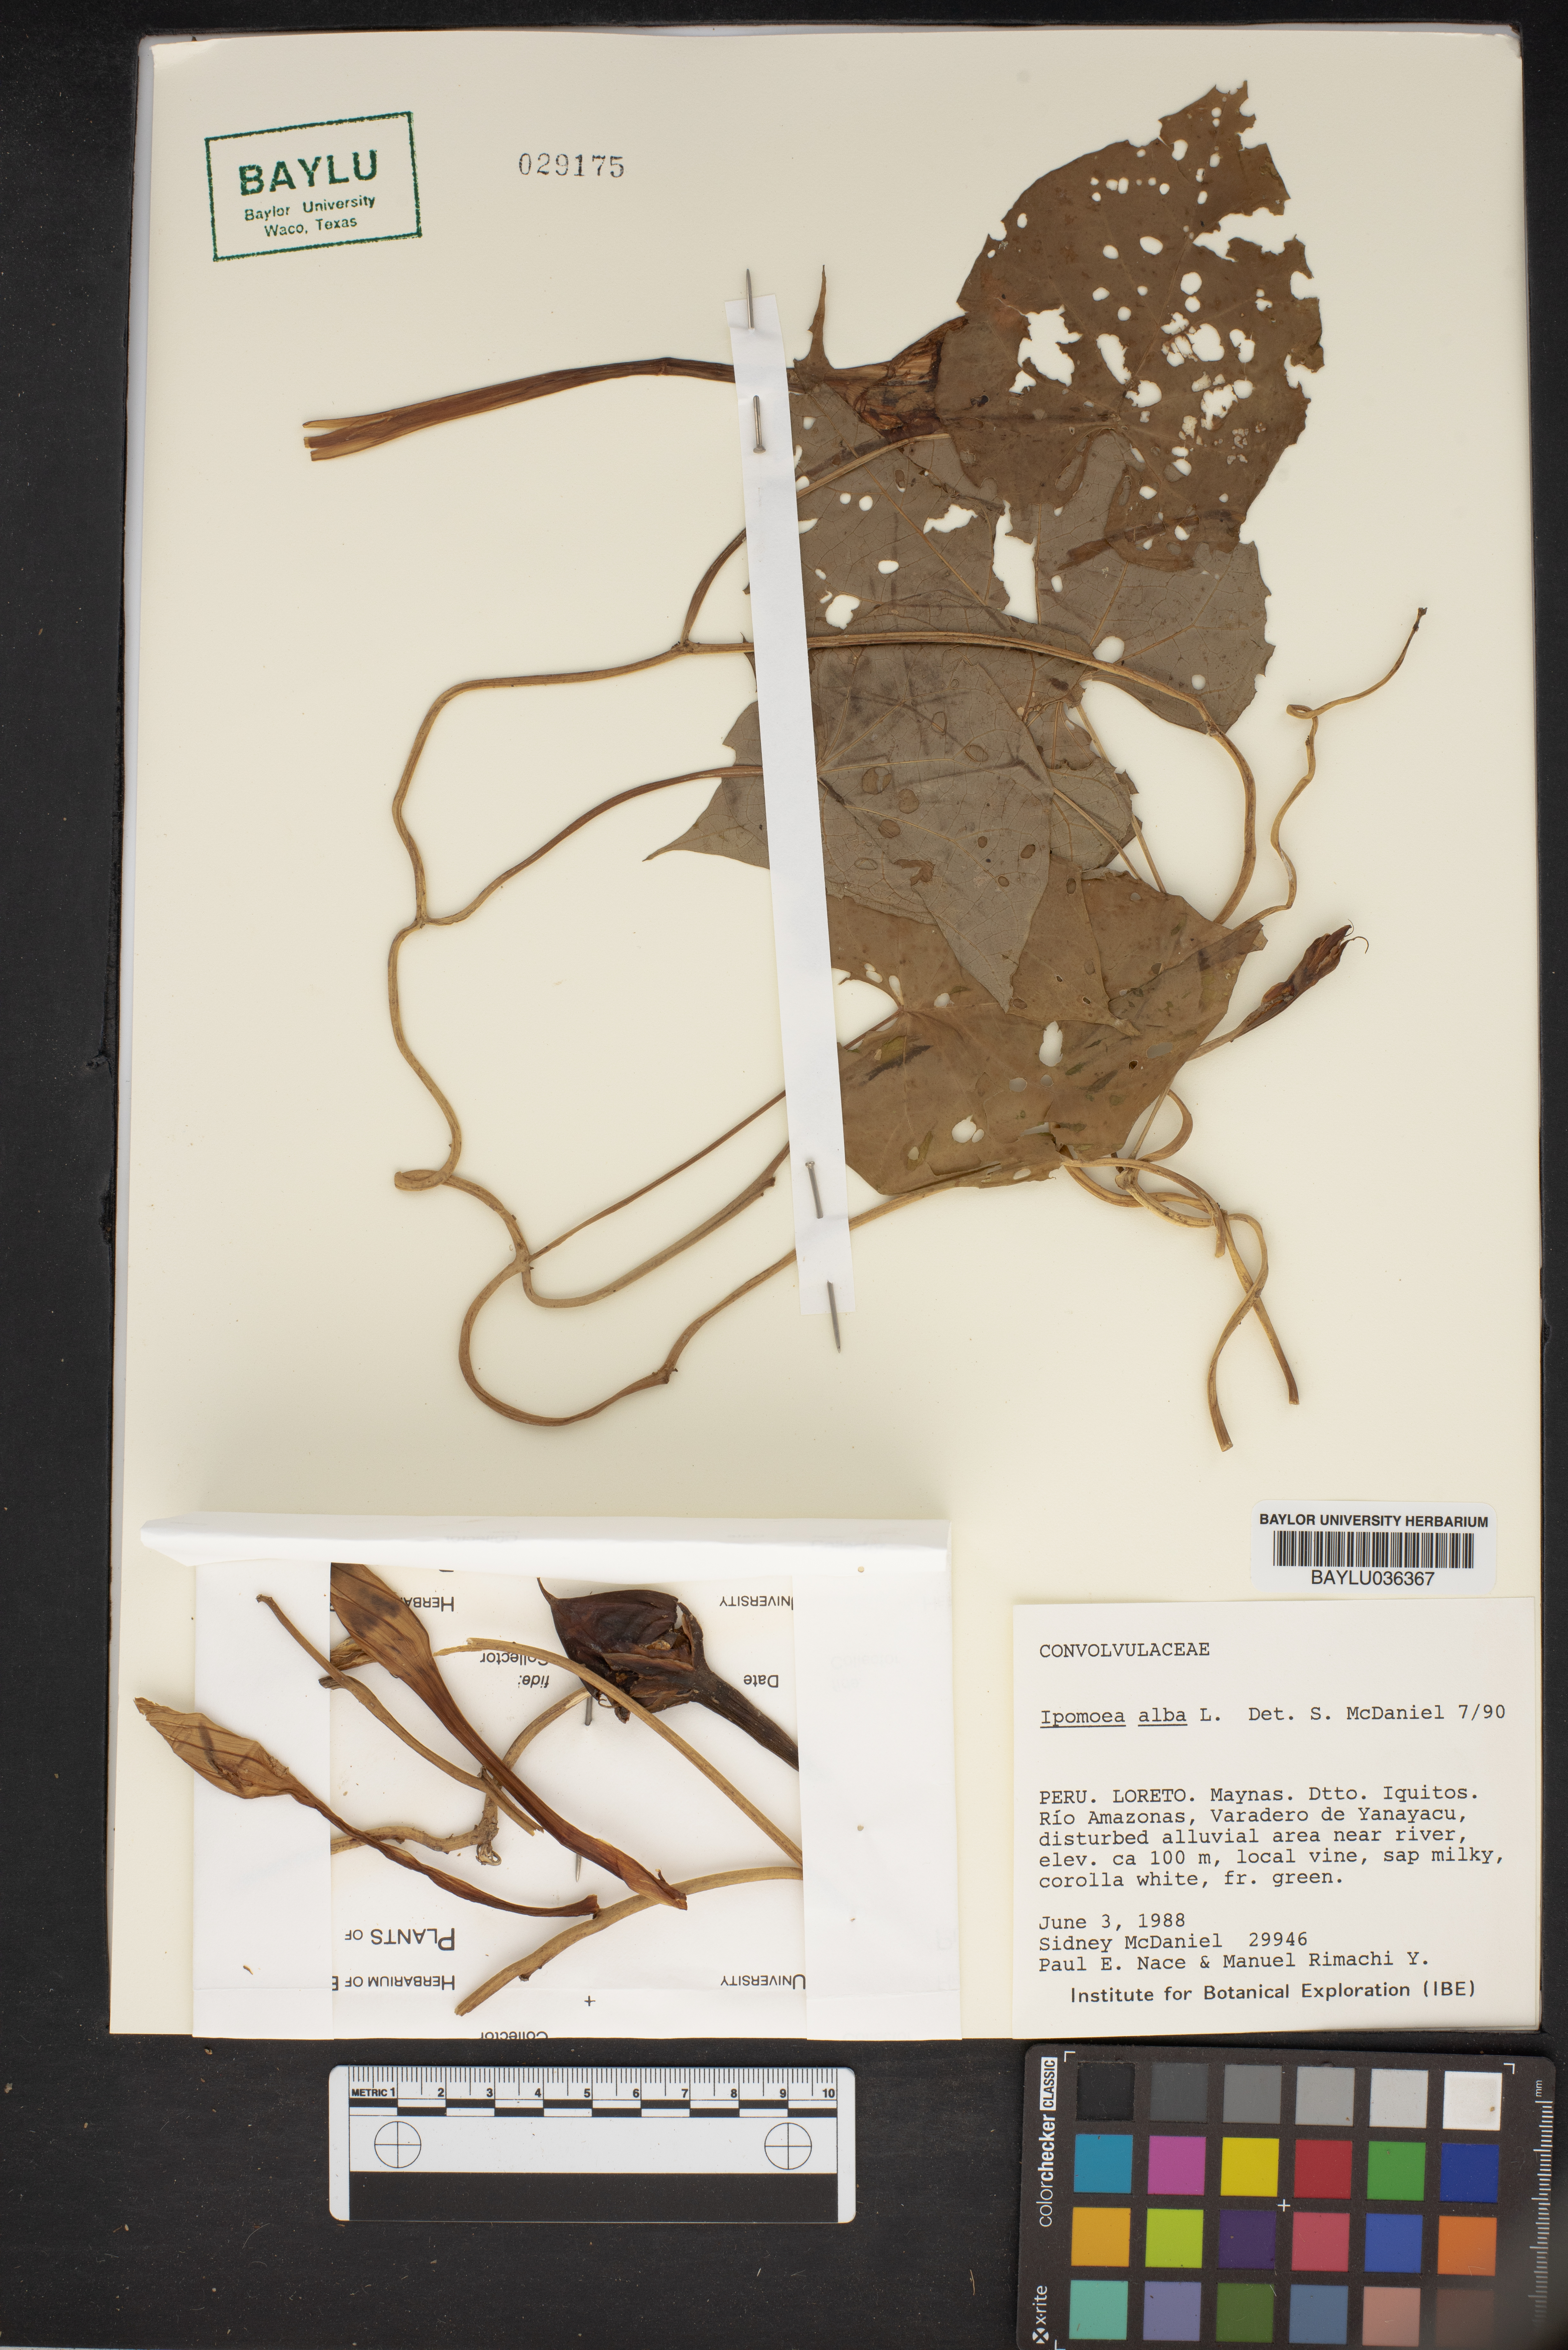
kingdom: Plantae
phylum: Tracheophyta
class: Magnoliopsida
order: Solanales
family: Convolvulaceae
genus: Ipomoea
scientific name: Ipomoea alba
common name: Moonflower
